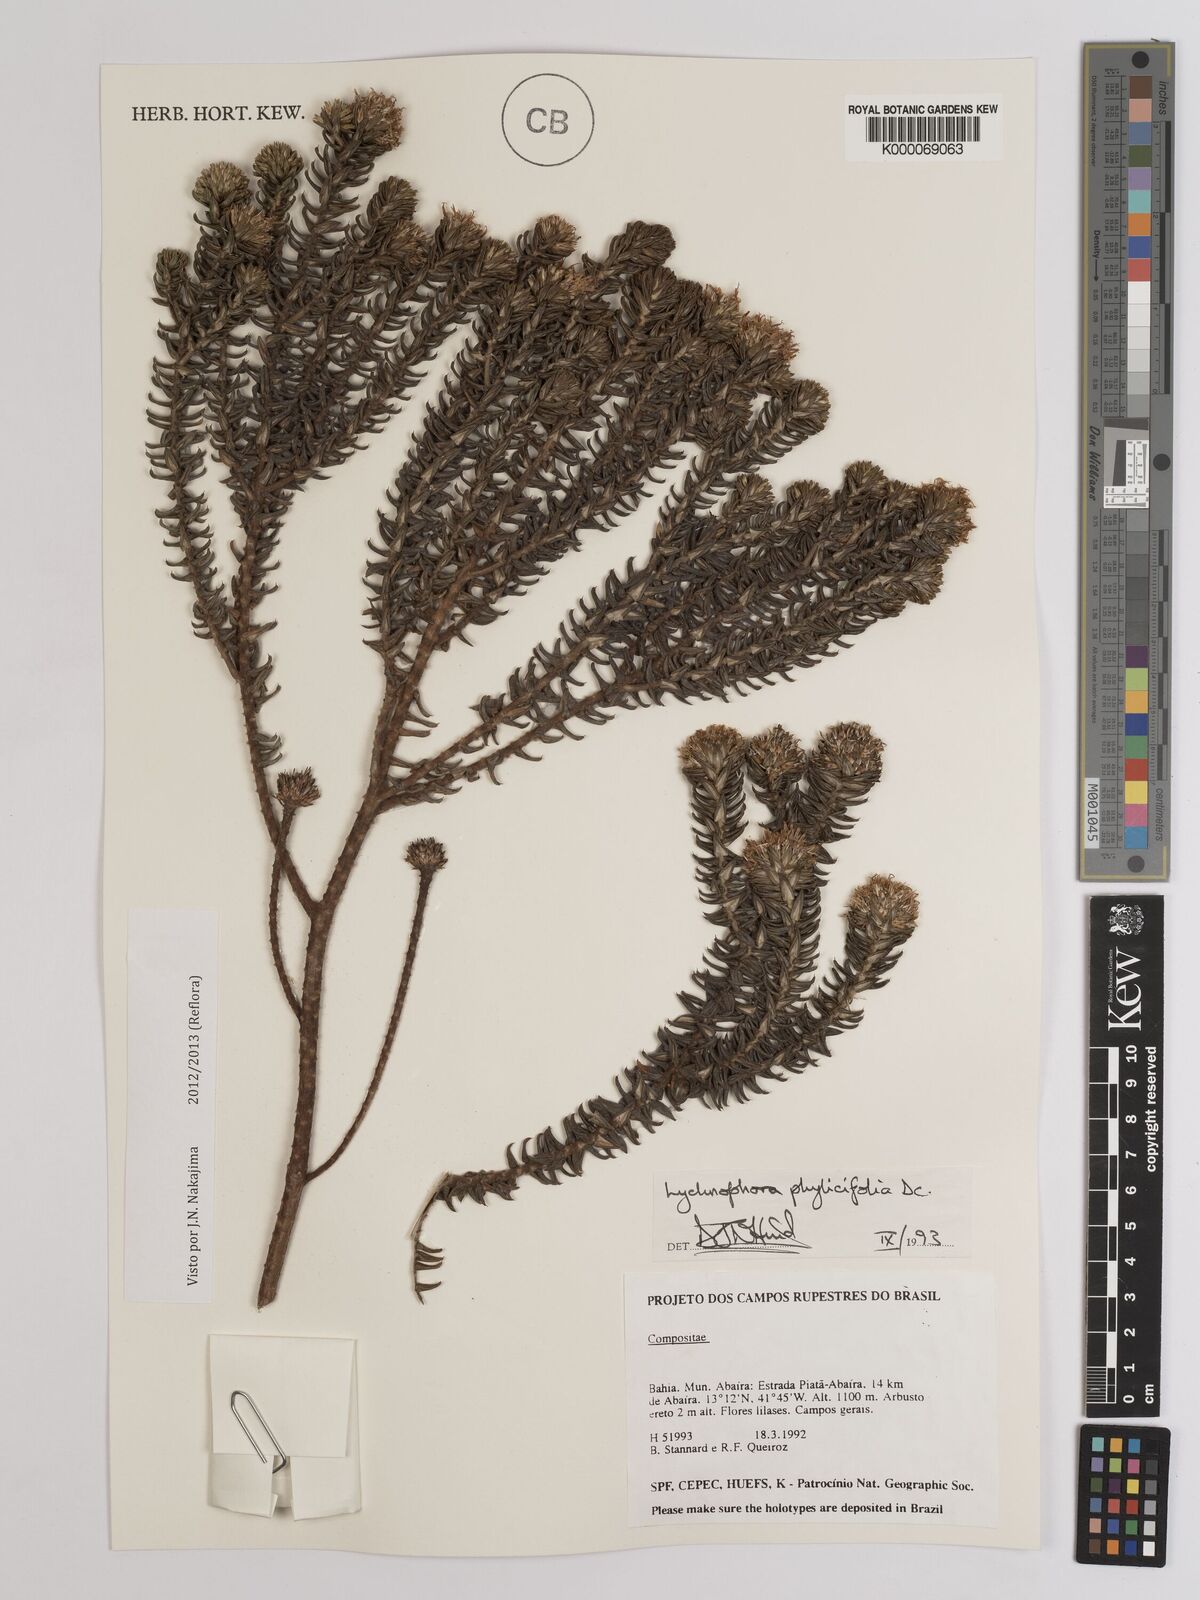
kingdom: Plantae
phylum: Tracheophyta
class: Magnoliopsida
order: Asterales
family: Asteraceae
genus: Lychnophora
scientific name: Lychnophora phylicifolia
